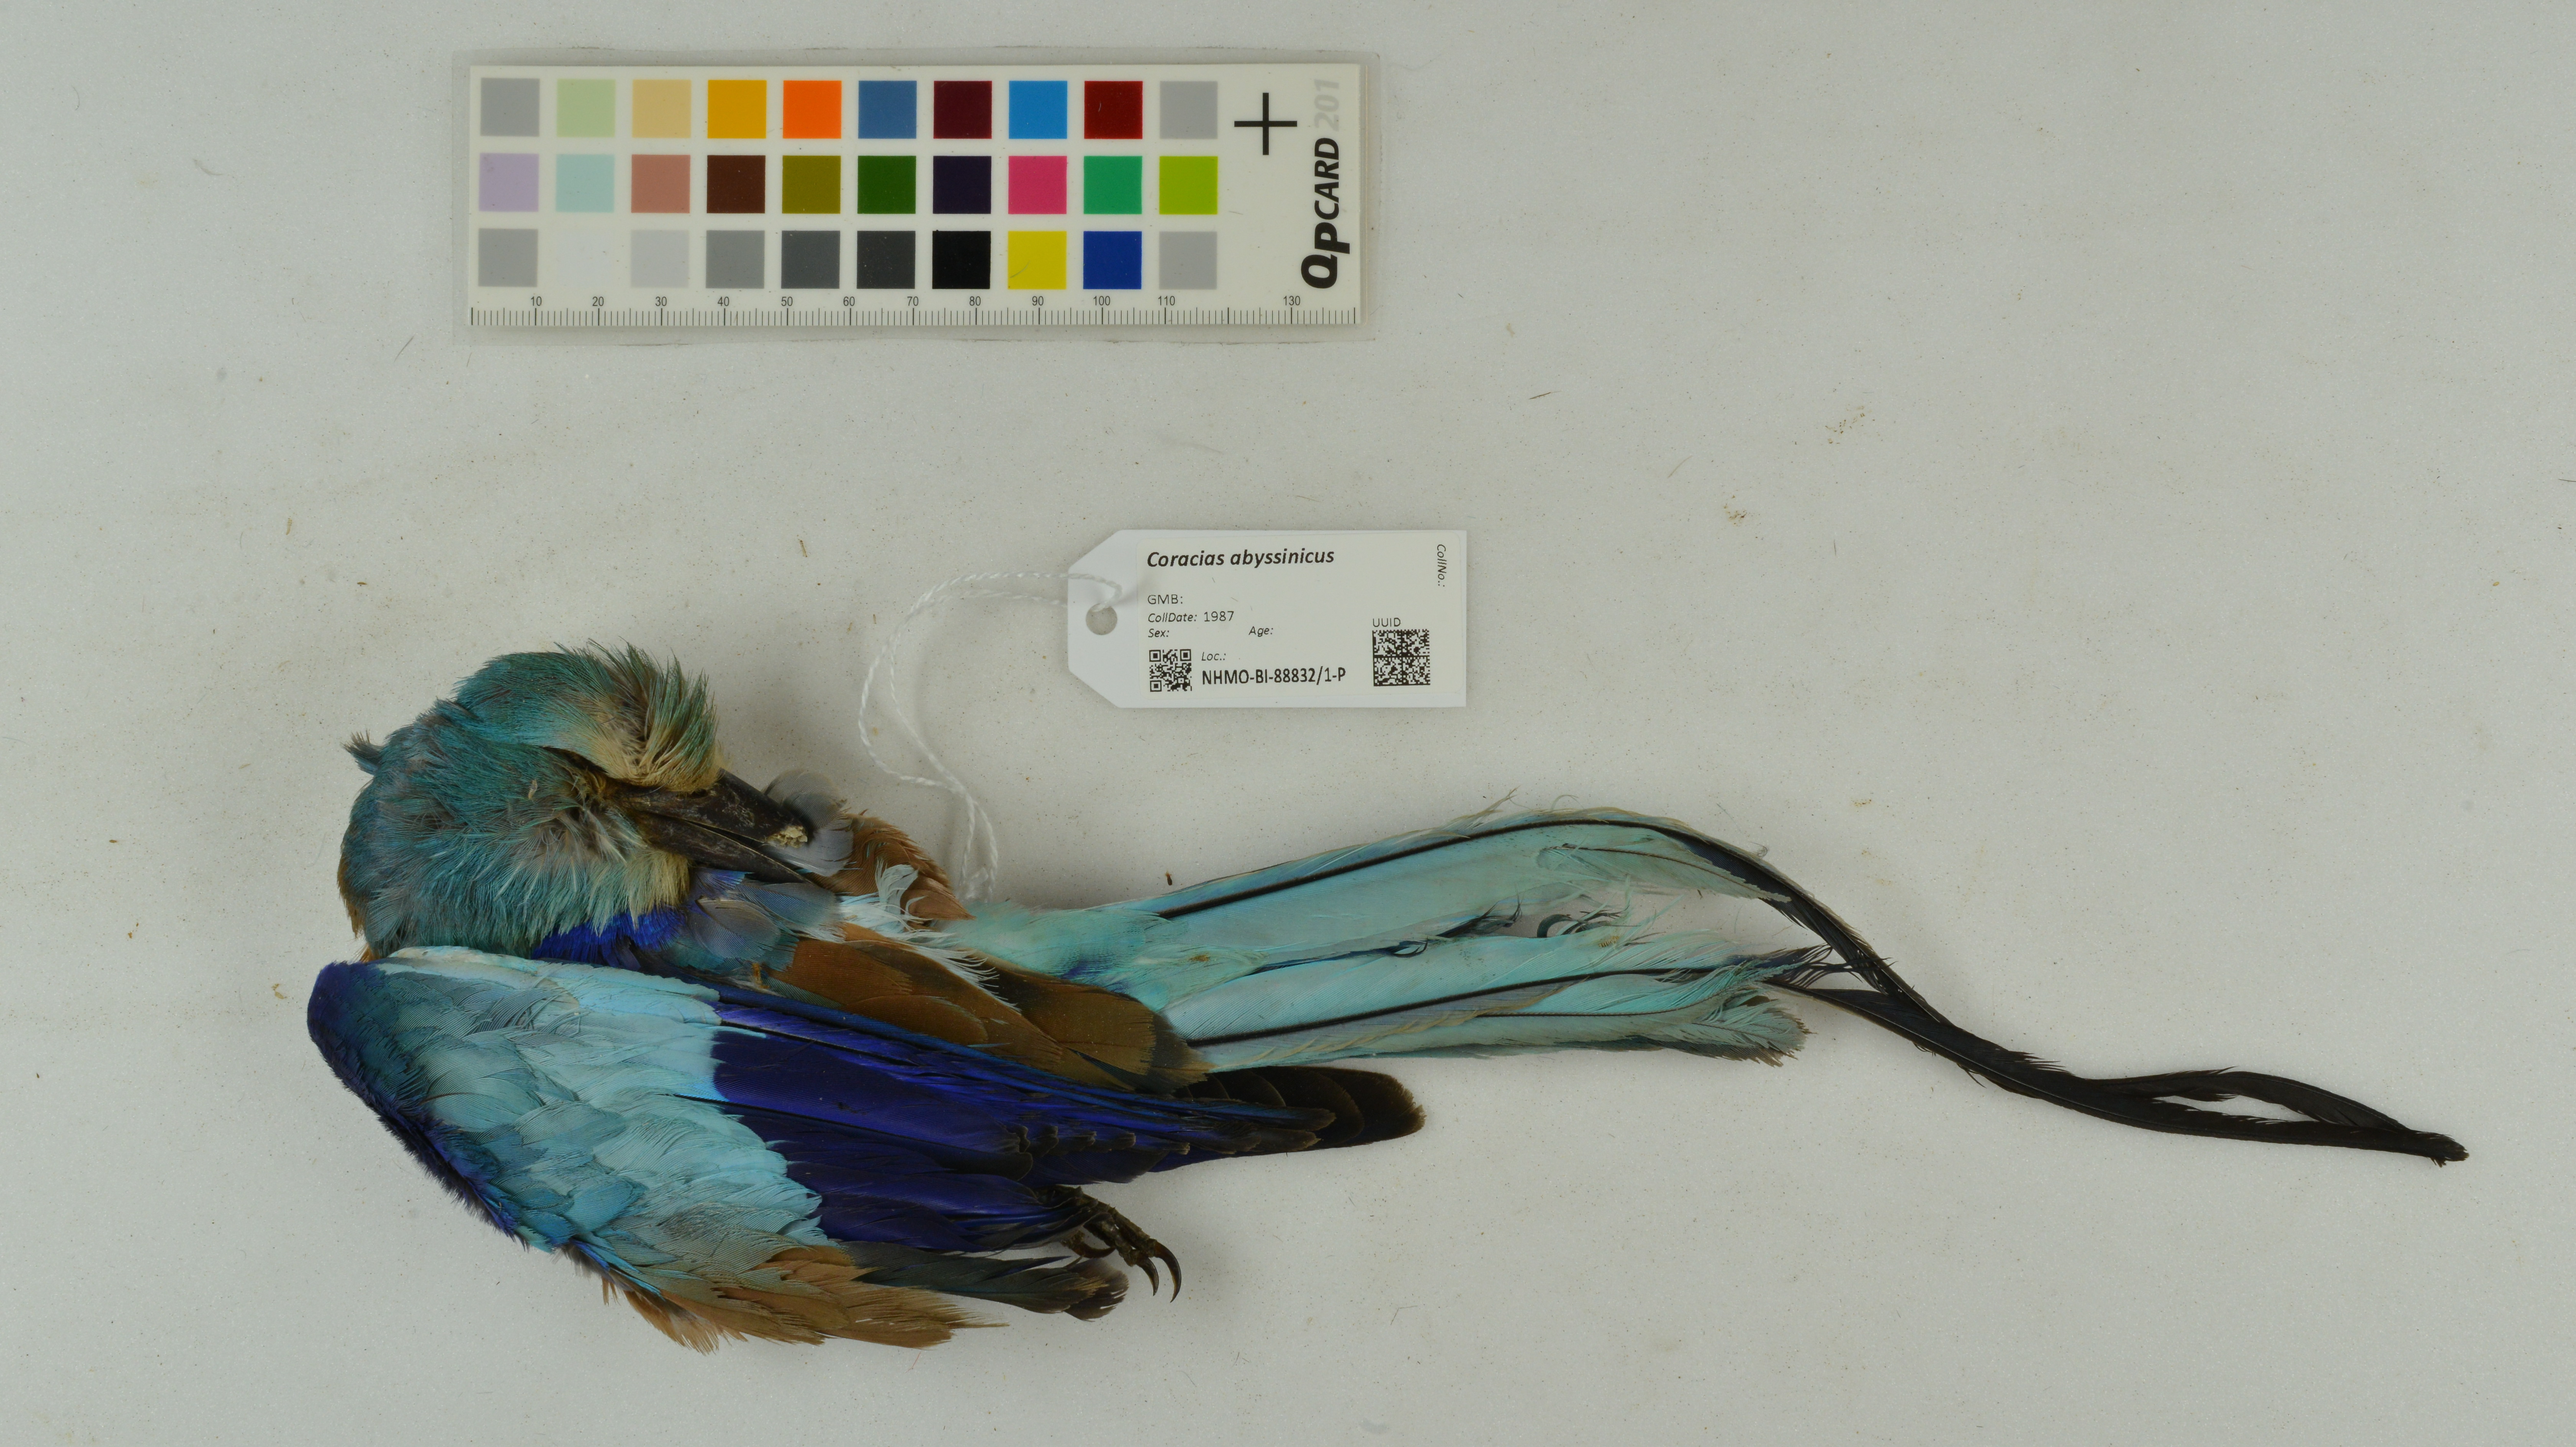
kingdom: Animalia
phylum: Chordata
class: Aves
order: Coraciiformes
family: Coraciidae
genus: Coracias
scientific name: Coracias abyssinicus
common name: Abyssinian roller
